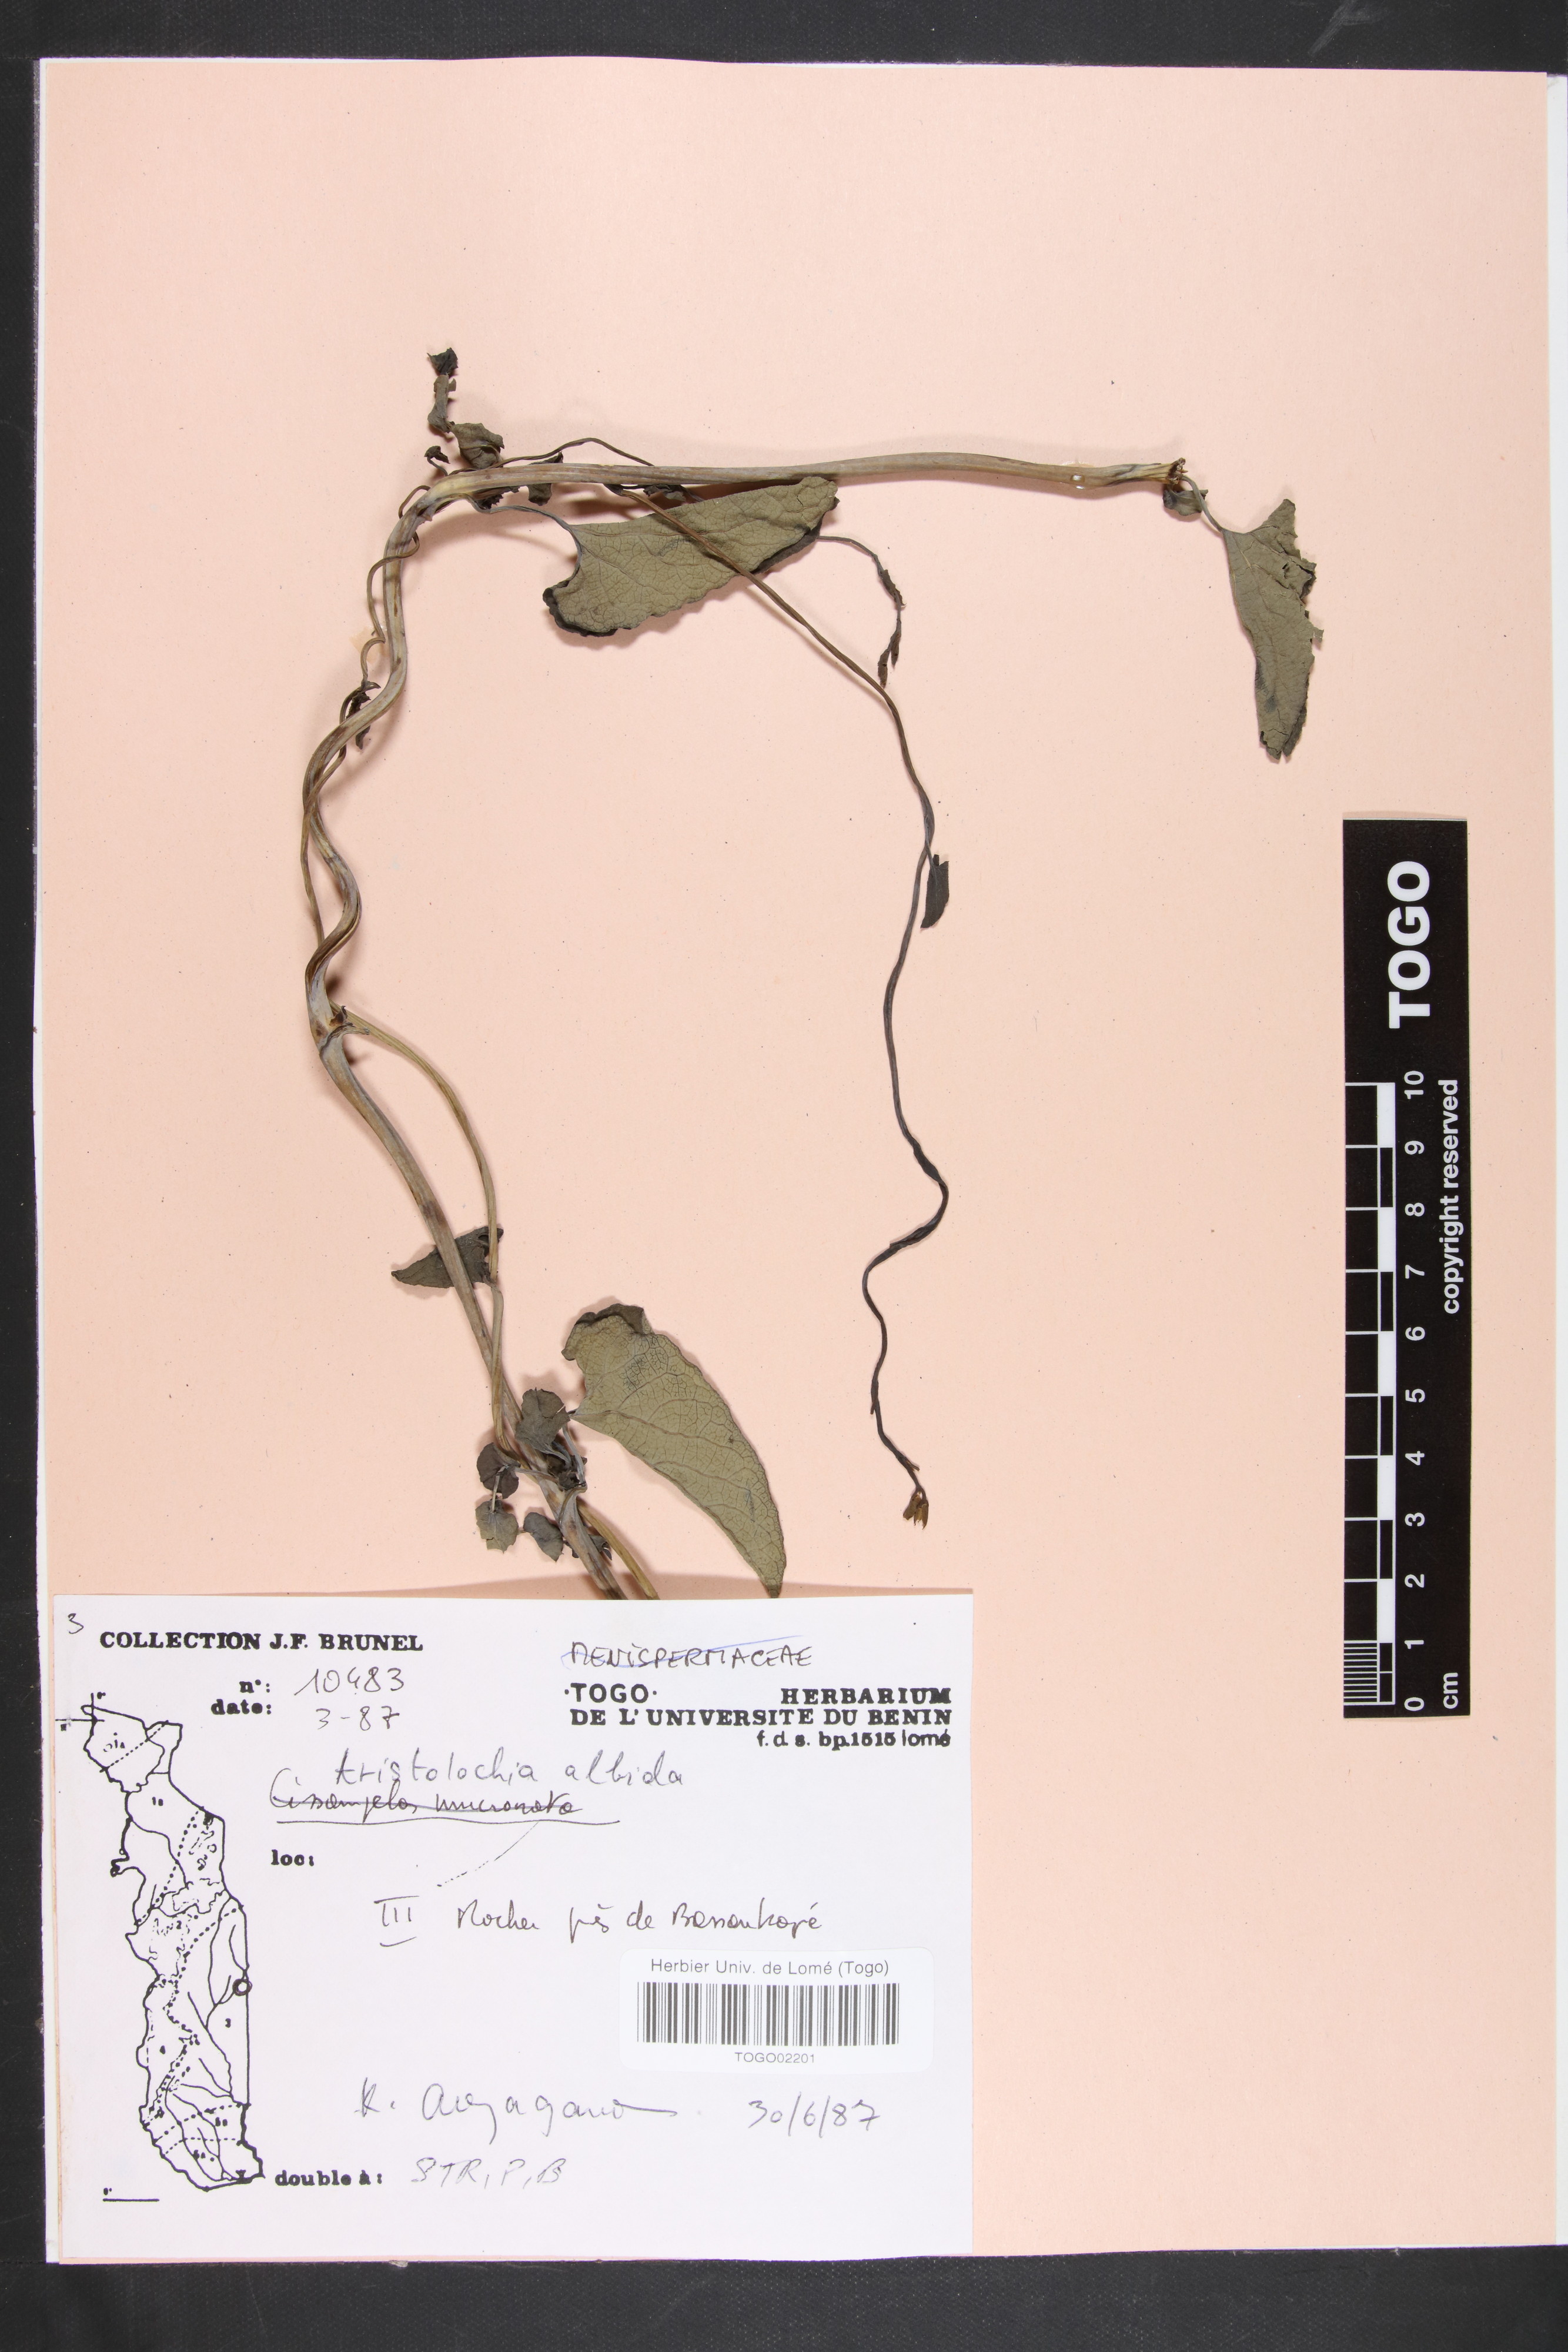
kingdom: Plantae
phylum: Tracheophyta
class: Magnoliopsida
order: Piperales
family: Aristolochiaceae
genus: Aristolochia
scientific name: Aristolochia albida
